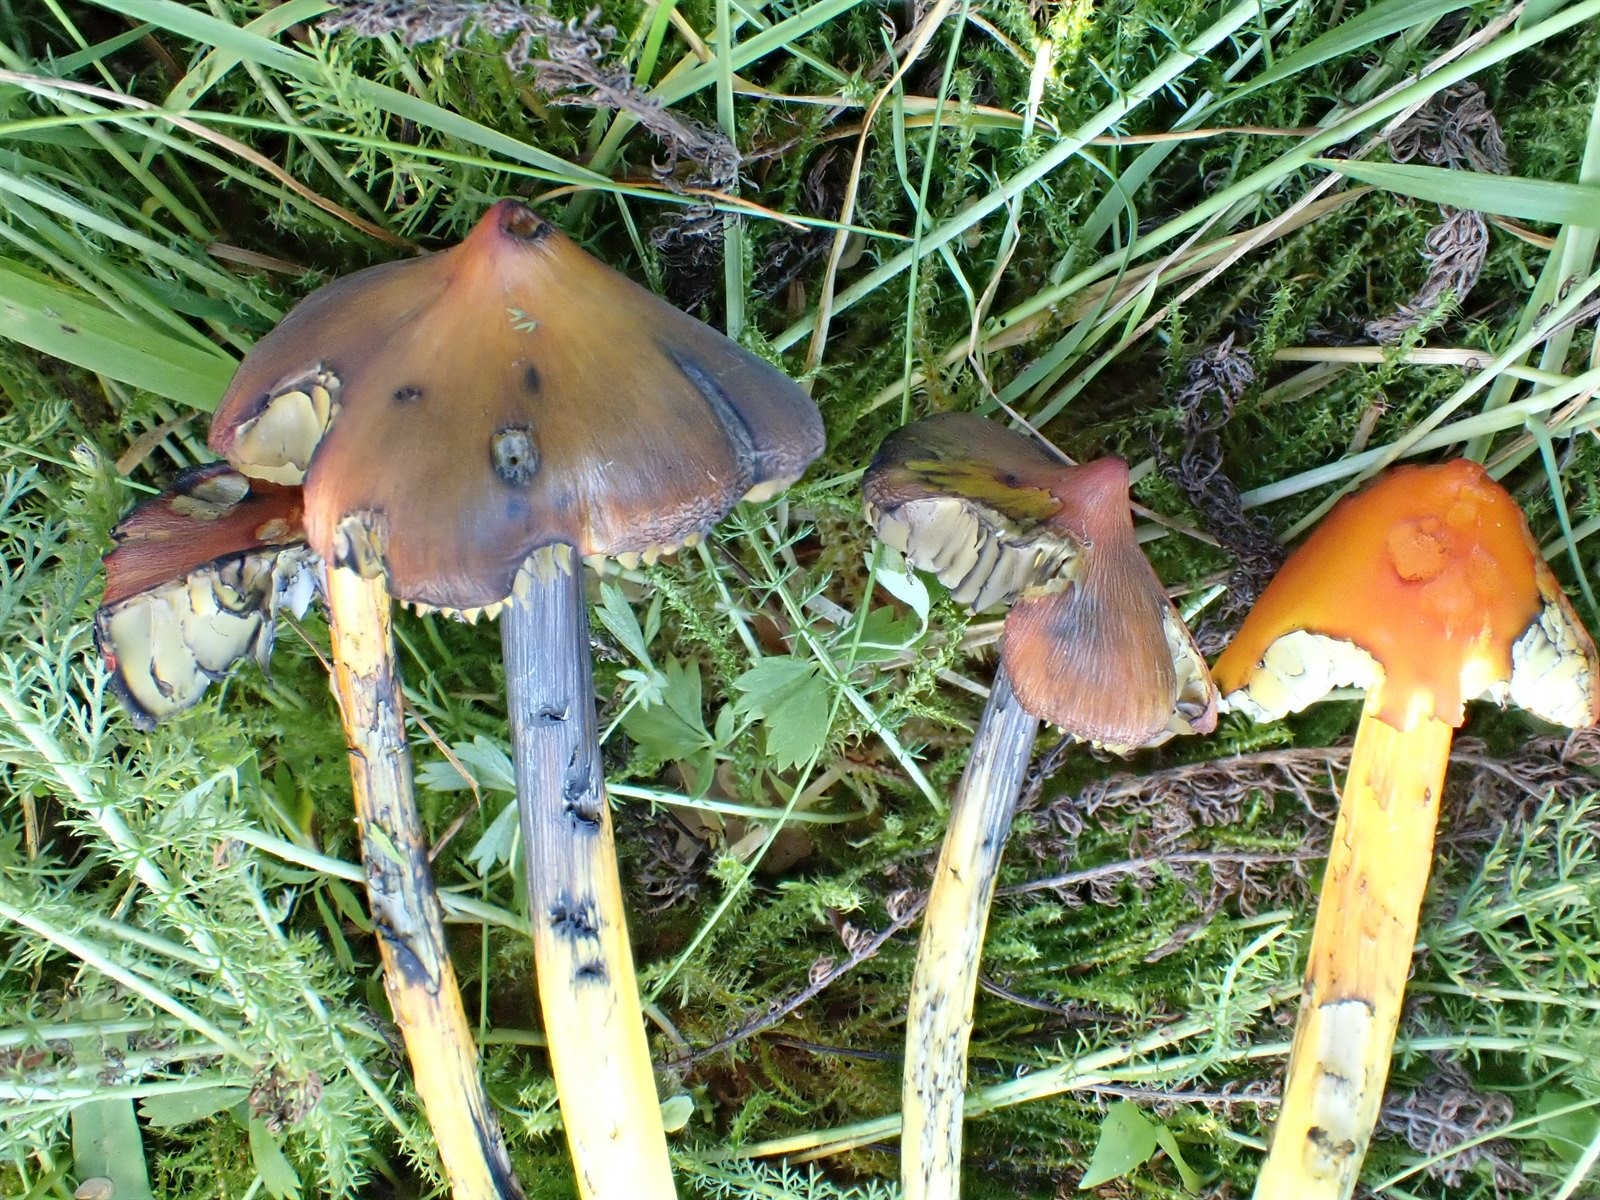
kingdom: Fungi
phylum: Basidiomycota
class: Agaricomycetes
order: Agaricales
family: Hygrophoraceae
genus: Hygrocybe
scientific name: Hygrocybe conica
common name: Blackening wax-cap
